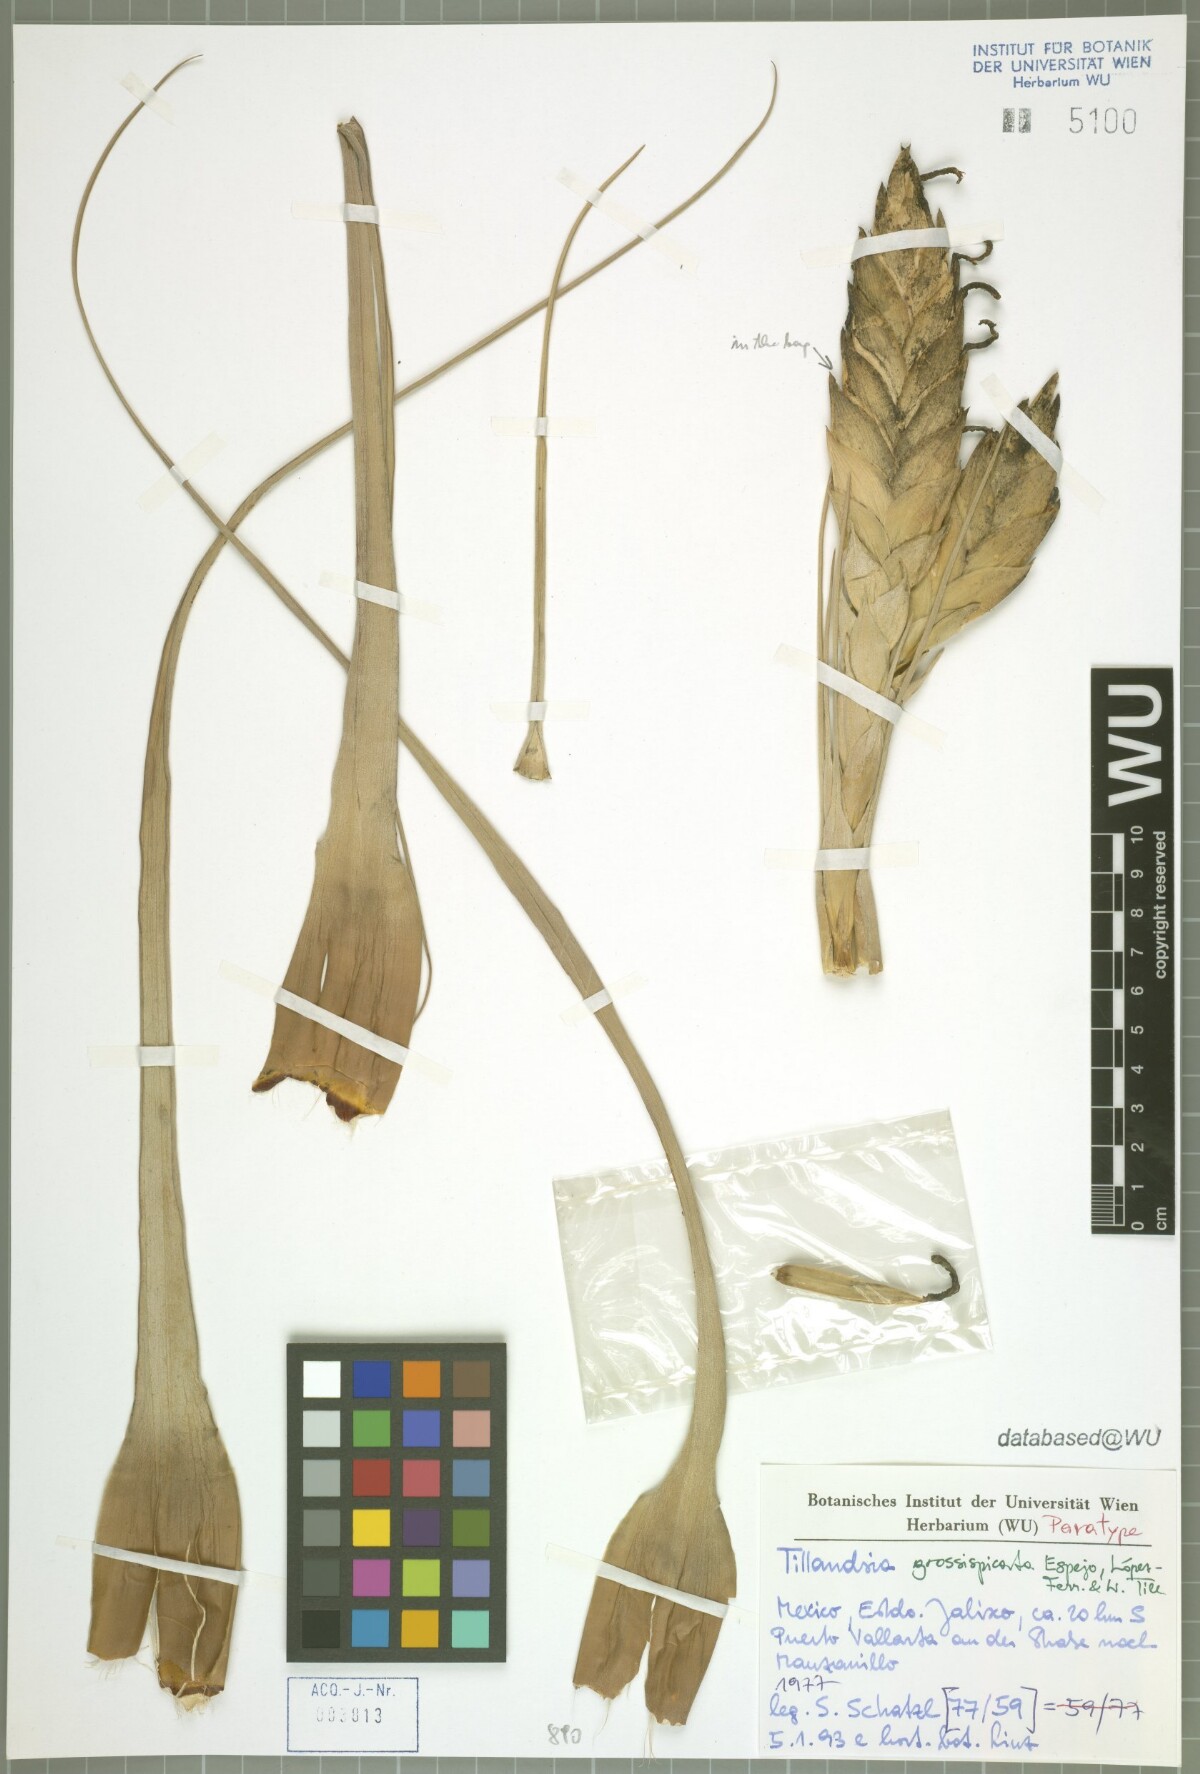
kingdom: Plantae
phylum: Tracheophyta
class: Liliopsida
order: Poales
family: Bromeliaceae
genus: Tillandsia
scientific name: Tillandsia grossispicata
